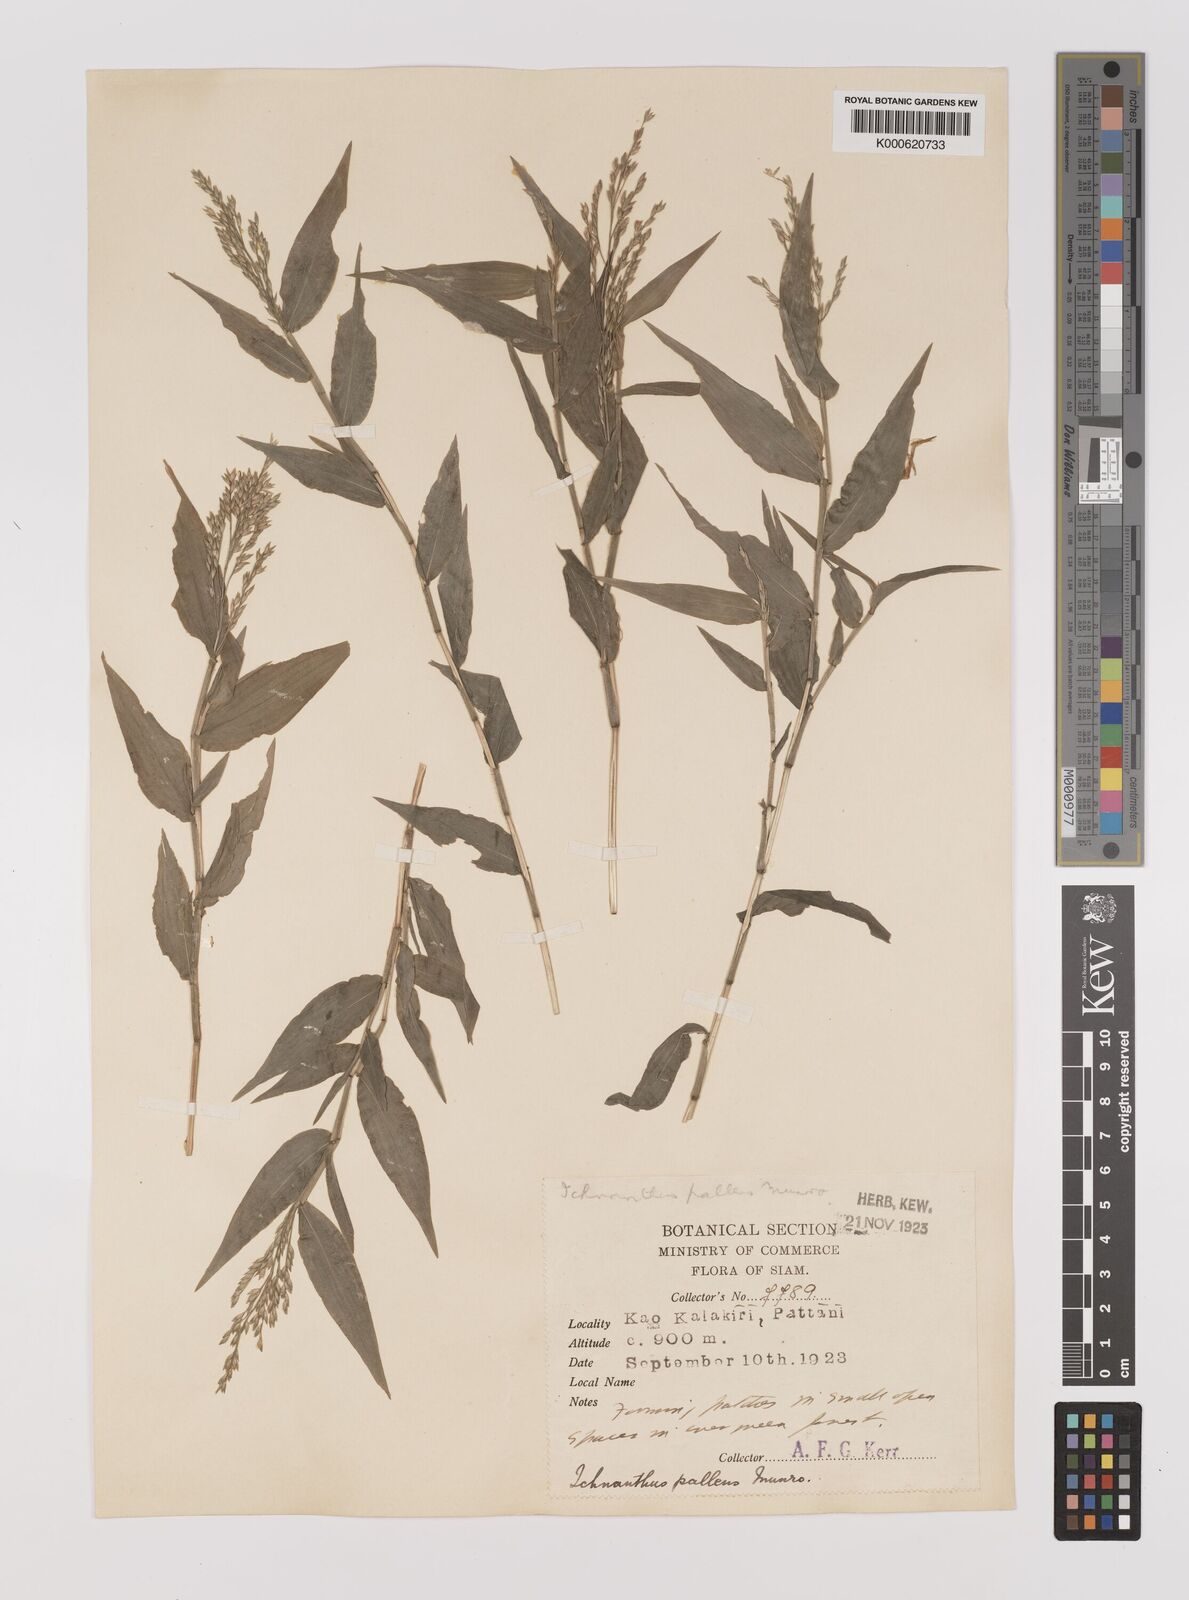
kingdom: Plantae
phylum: Tracheophyta
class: Liliopsida
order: Poales
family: Poaceae
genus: Ichnanthus
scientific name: Ichnanthus
